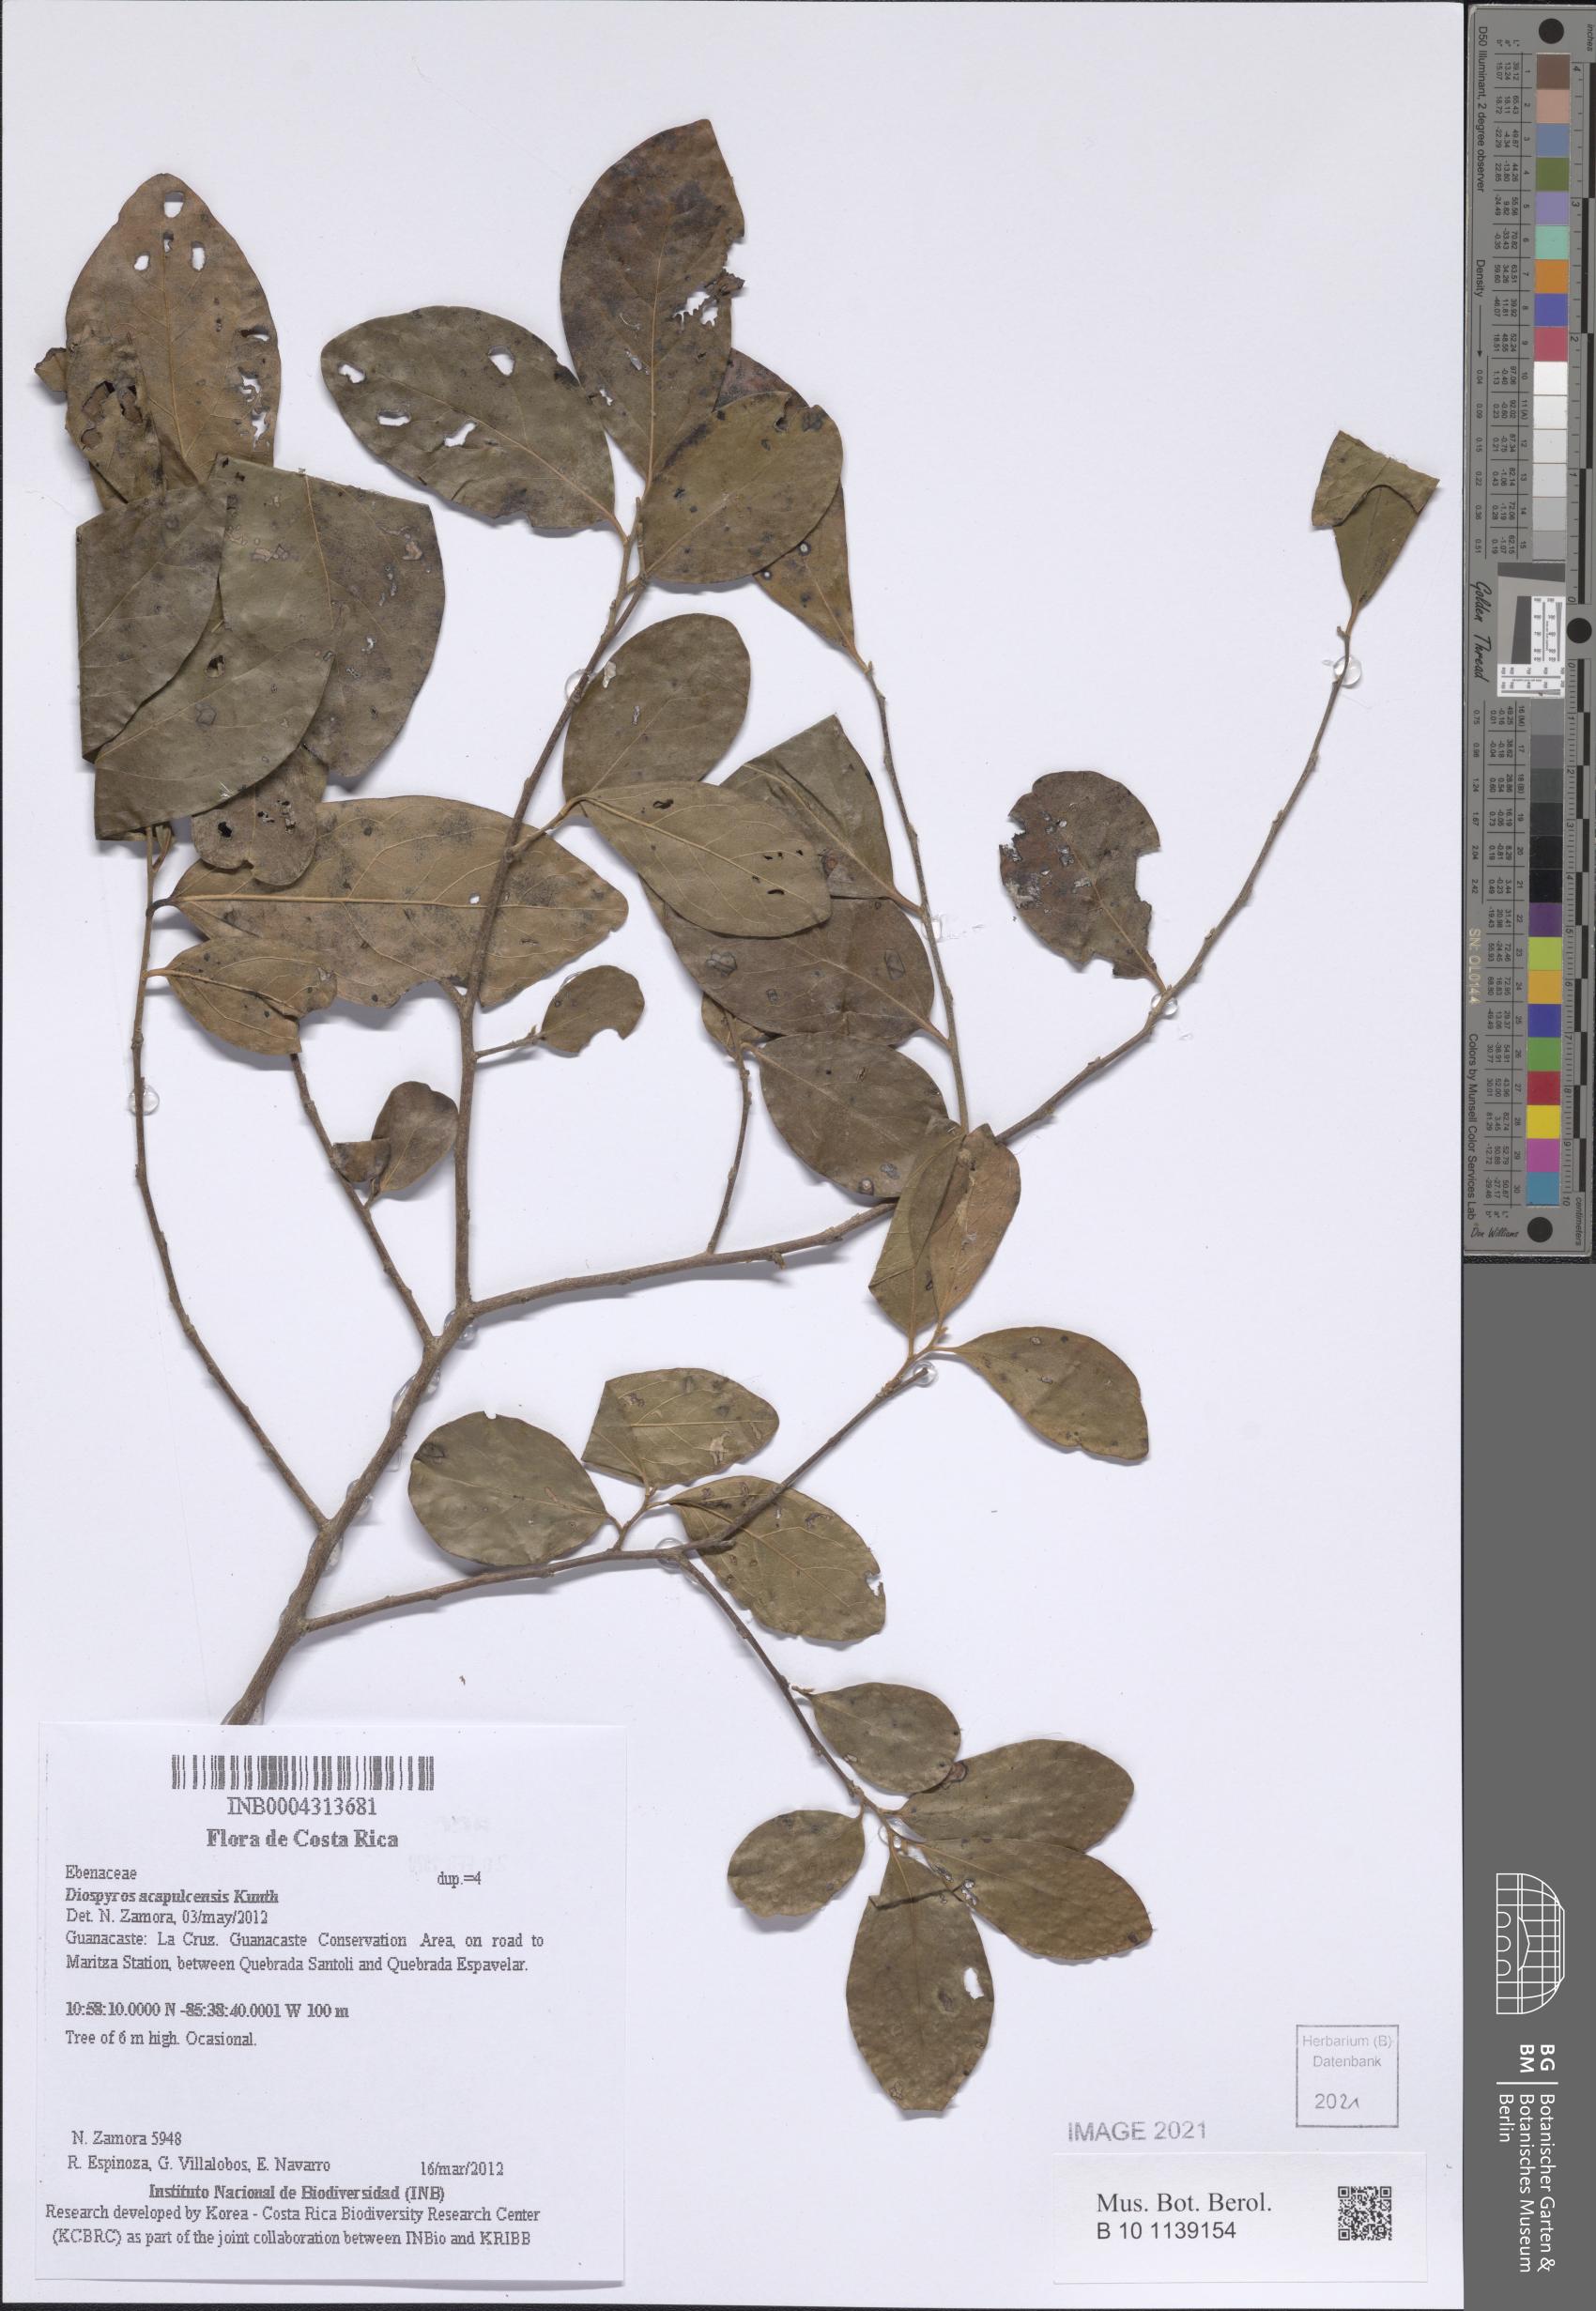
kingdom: Plantae
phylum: Tracheophyta
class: Magnoliopsida
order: Ericales
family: Ebenaceae
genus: Diospyros
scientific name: Diospyros acapulcensis
